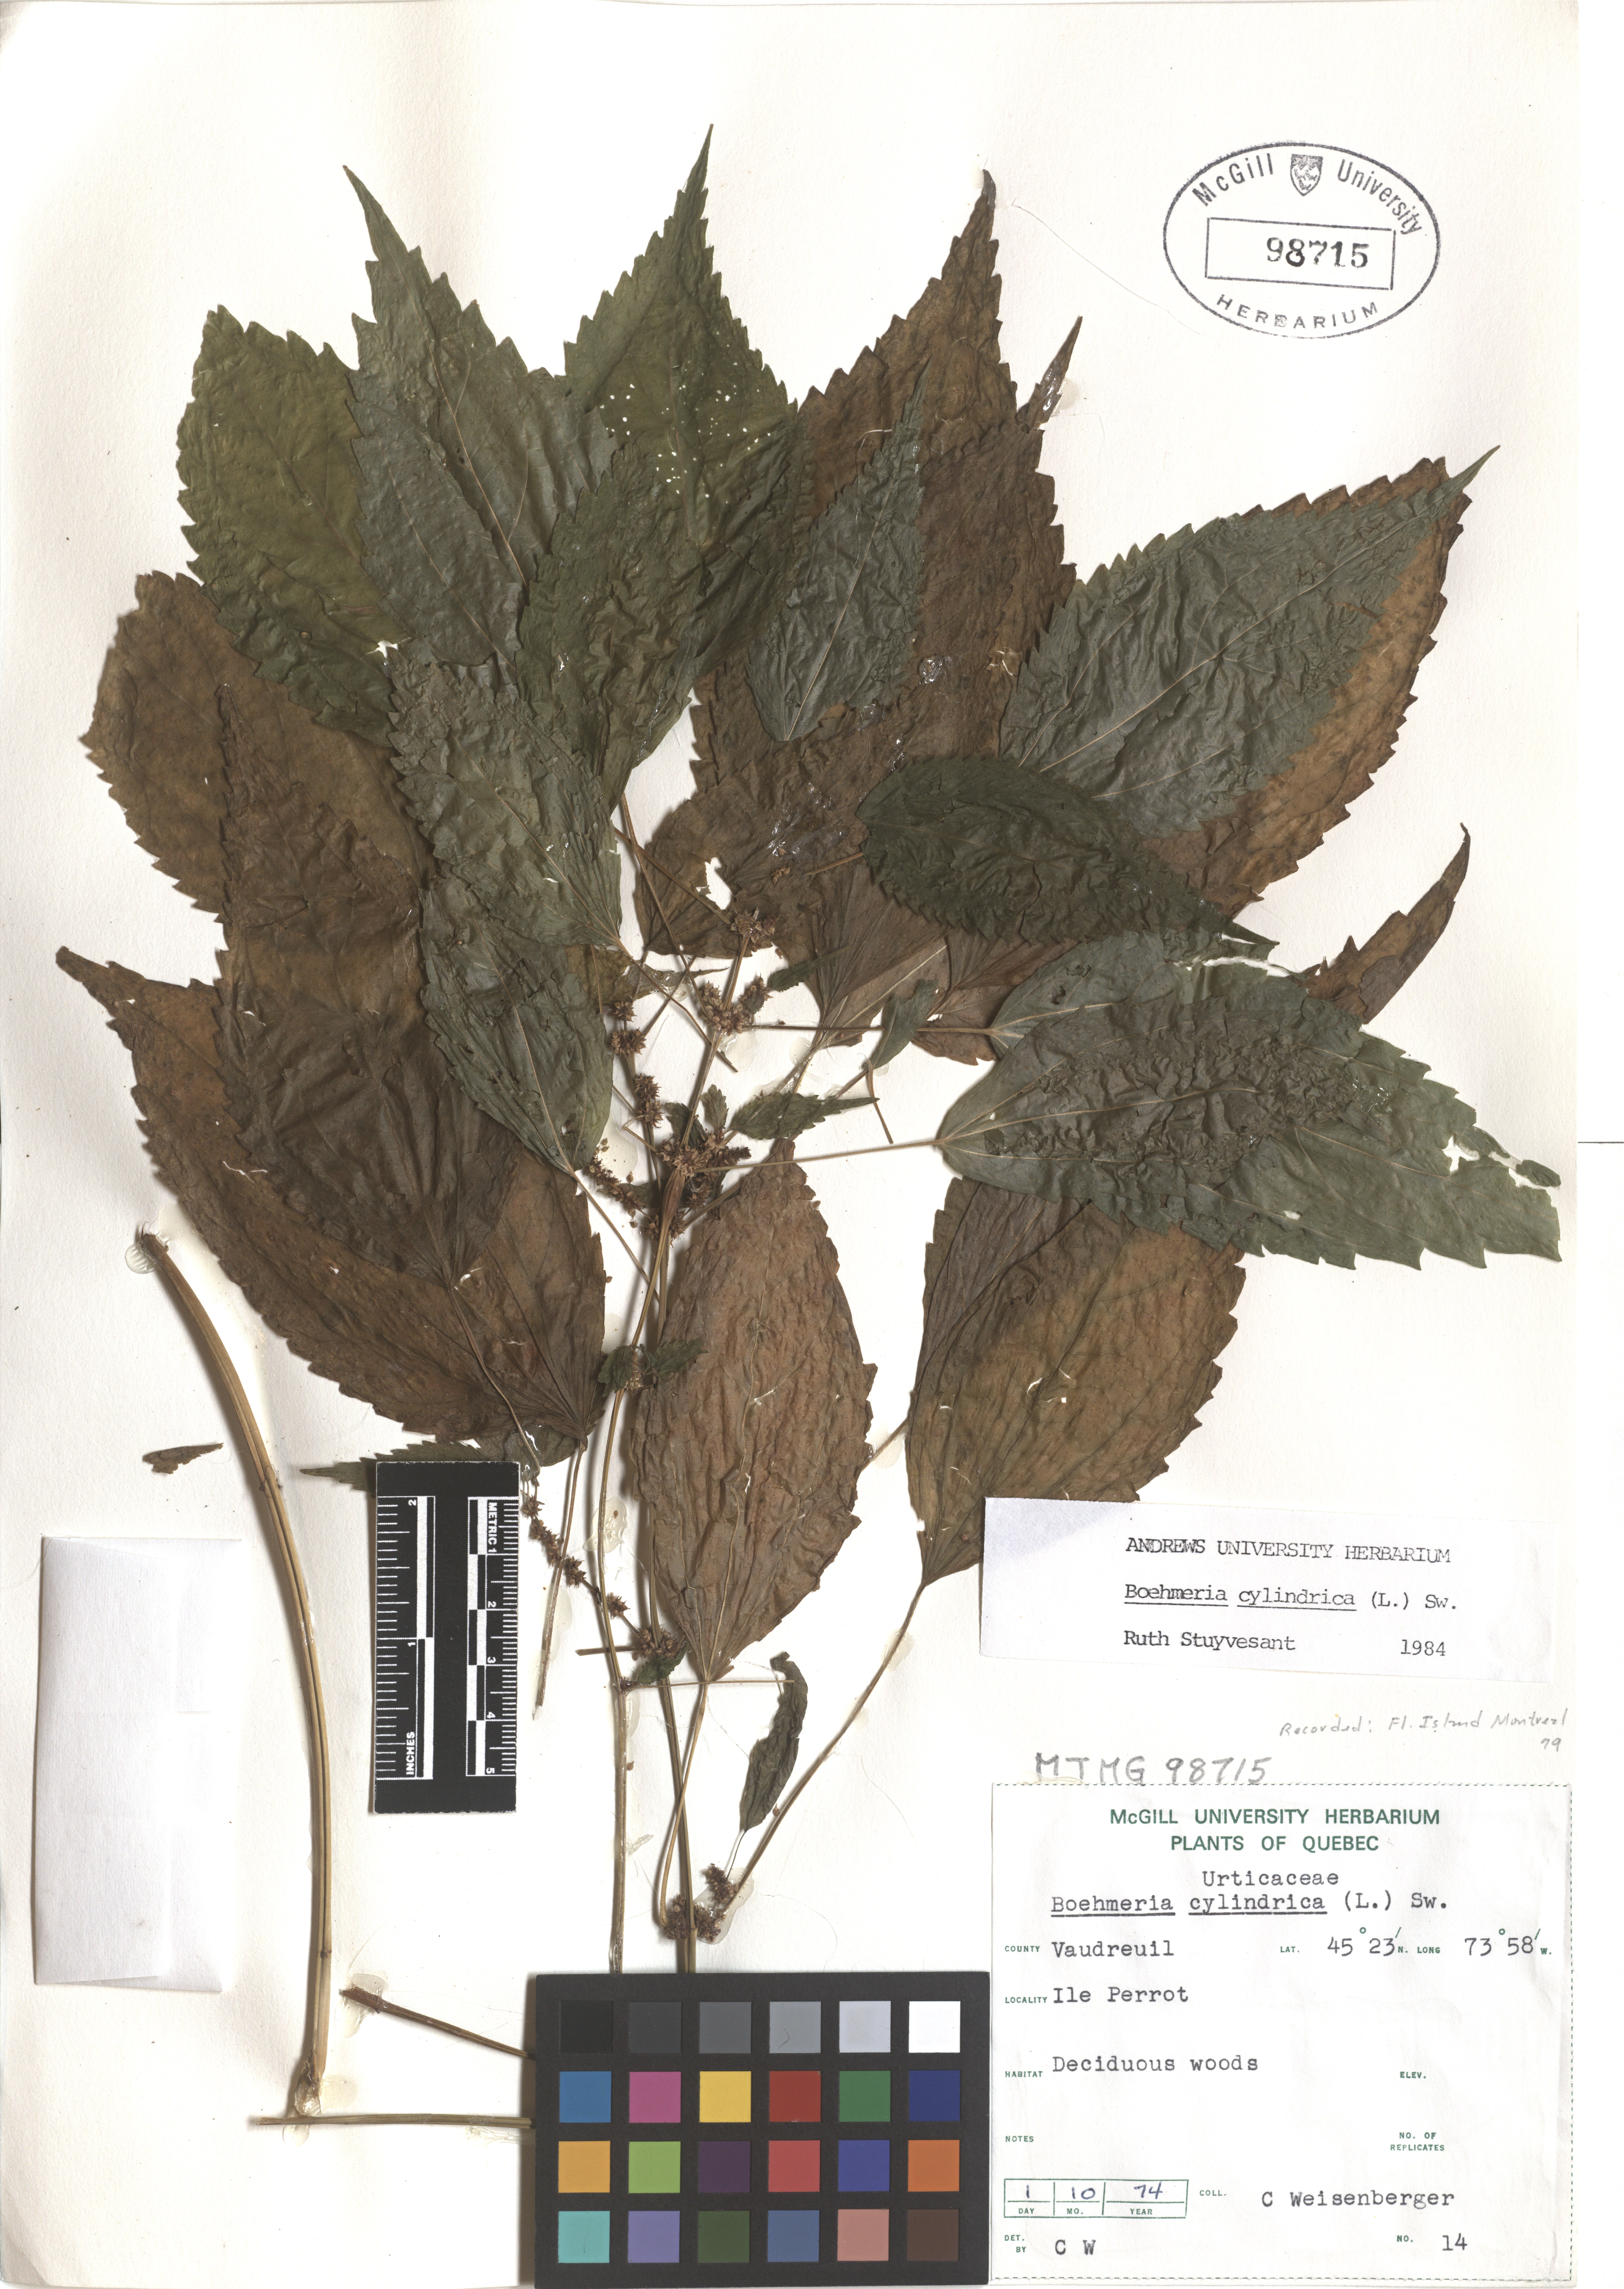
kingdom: Plantae
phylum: Tracheophyta
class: Magnoliopsida
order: Rosales
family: Urticaceae
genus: Boehmeria
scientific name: Boehmeria cylindrica
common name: Bog-hemp
